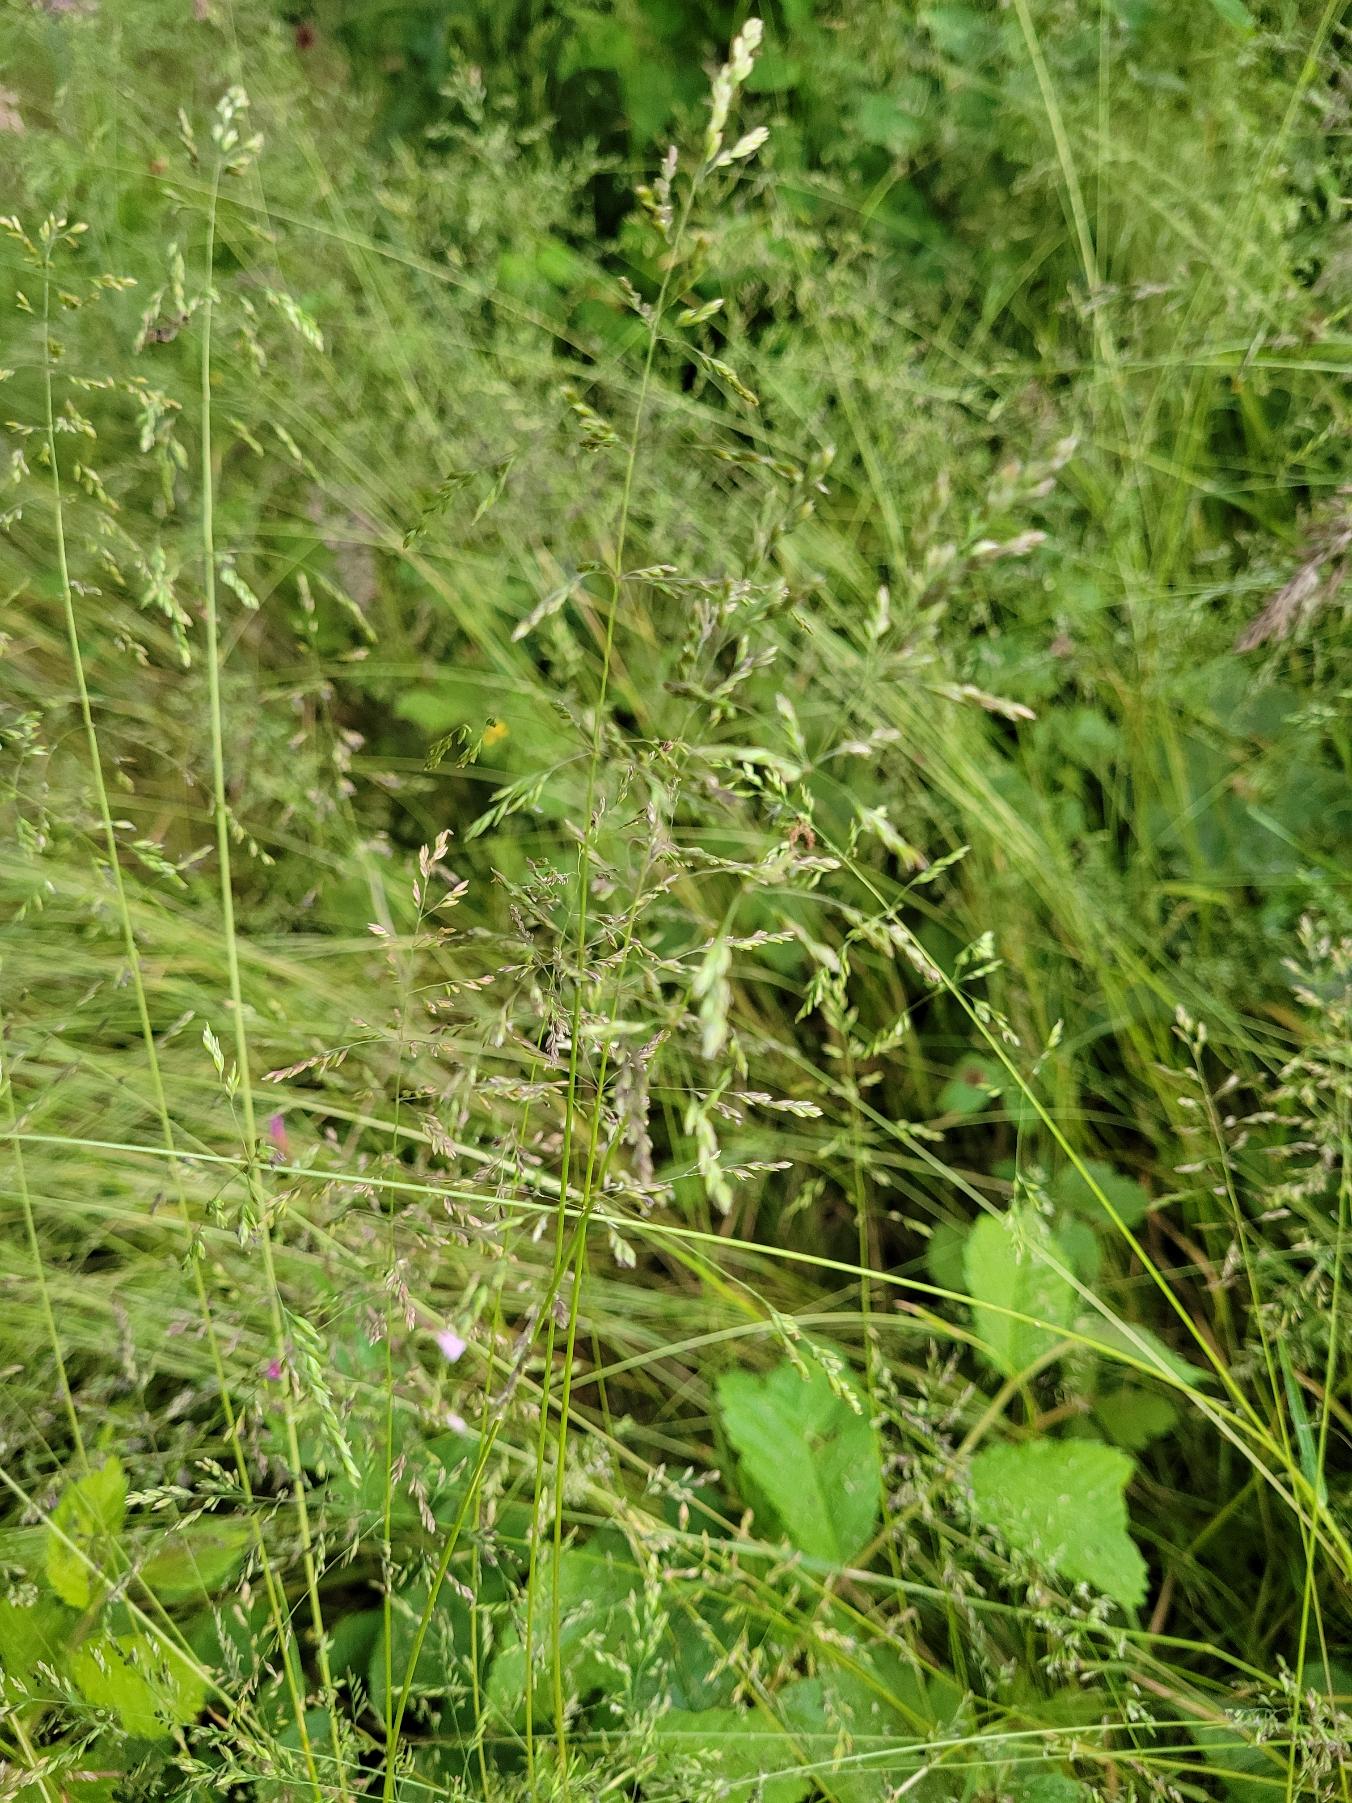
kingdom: Plantae
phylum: Tracheophyta
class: Liliopsida
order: Poales
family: Poaceae
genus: Poa
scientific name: Poa trivialis
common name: Almindelig rapgræs
